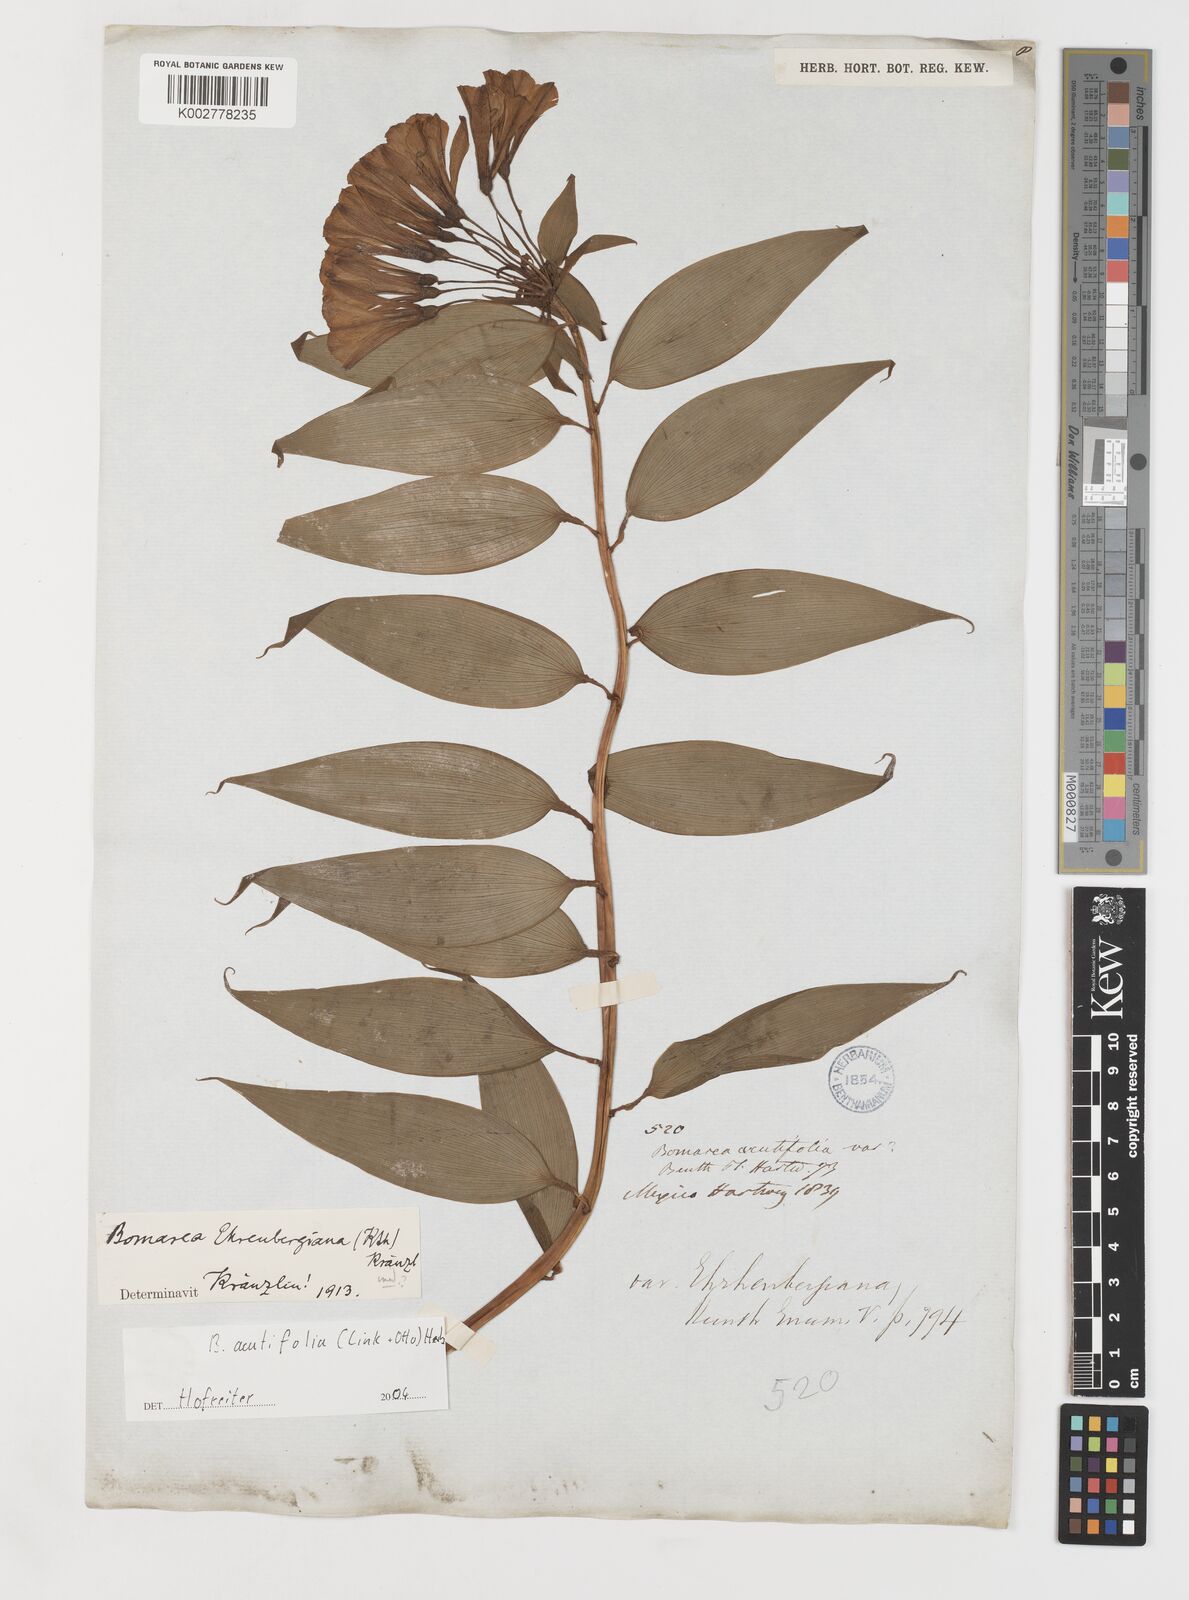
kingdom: Plantae
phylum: Tracheophyta
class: Liliopsida
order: Liliales
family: Alstroemeriaceae
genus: Bomarea
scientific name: Bomarea acutifolia
